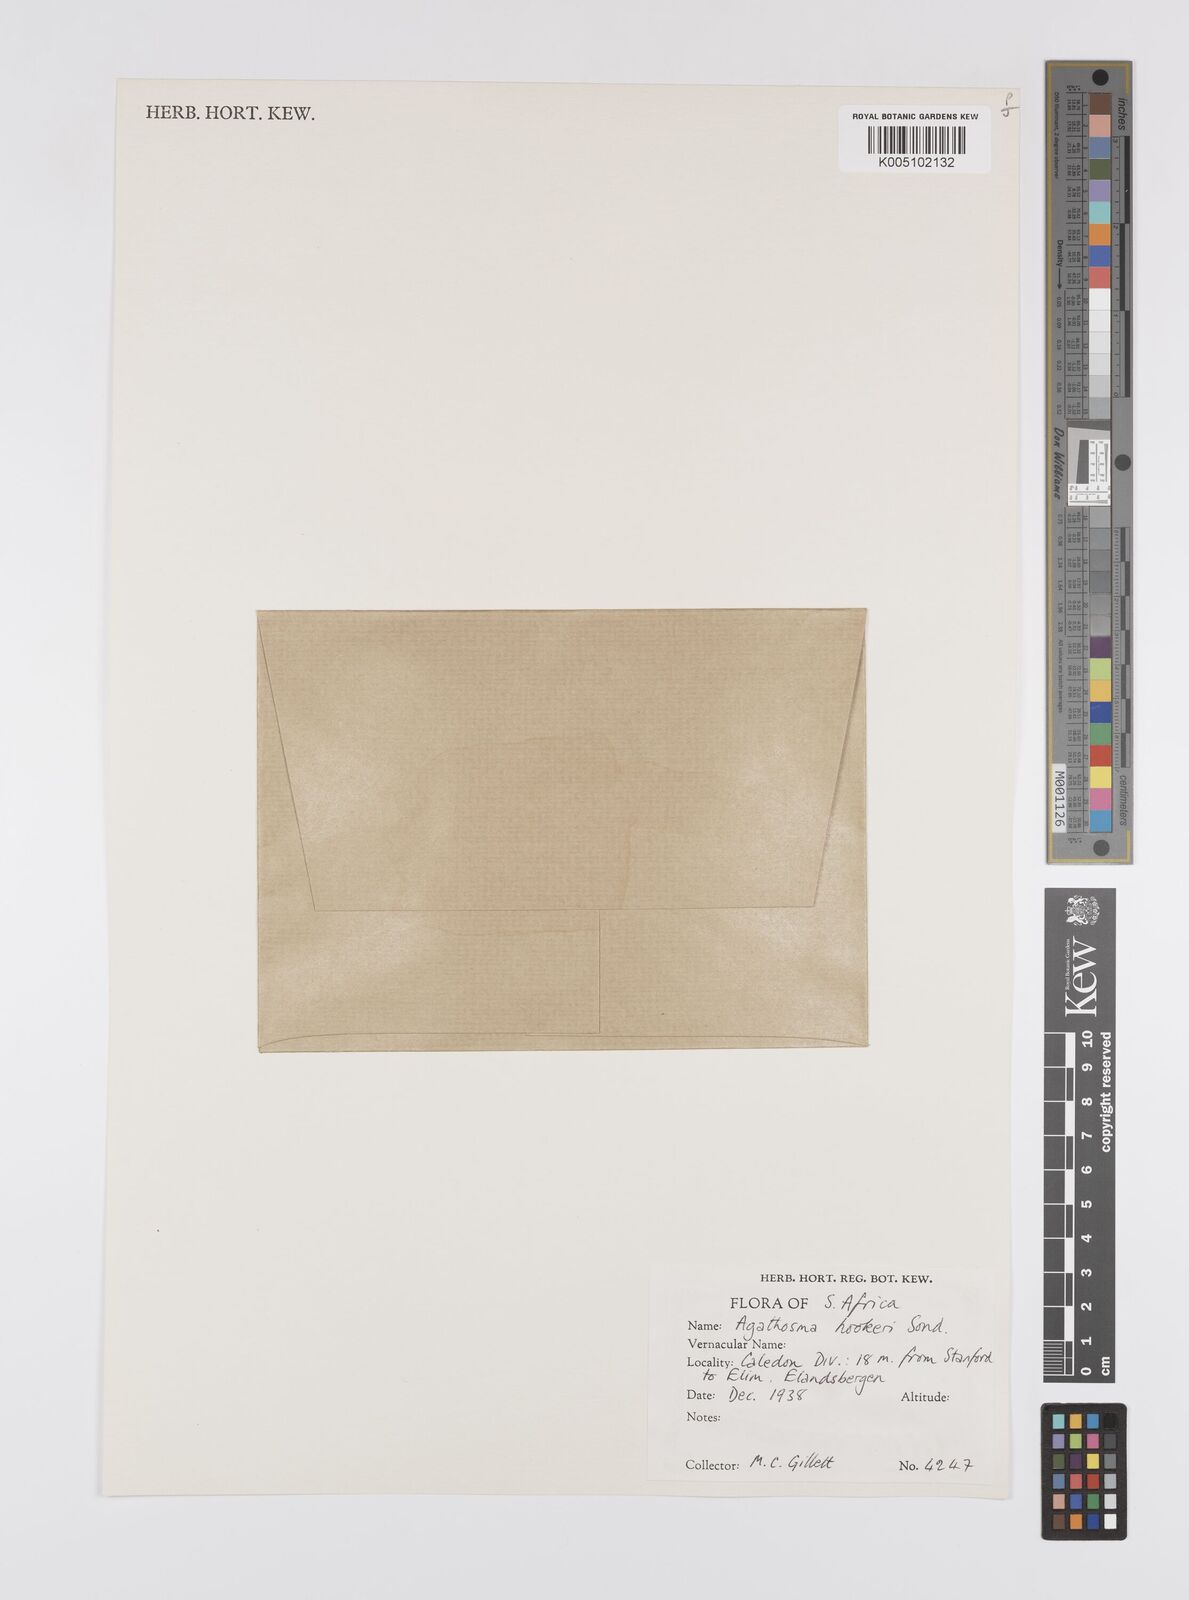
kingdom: Plantae
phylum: Tracheophyta
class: Magnoliopsida
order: Sapindales
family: Rutaceae
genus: Agathosma
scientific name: Agathosma hookeri
